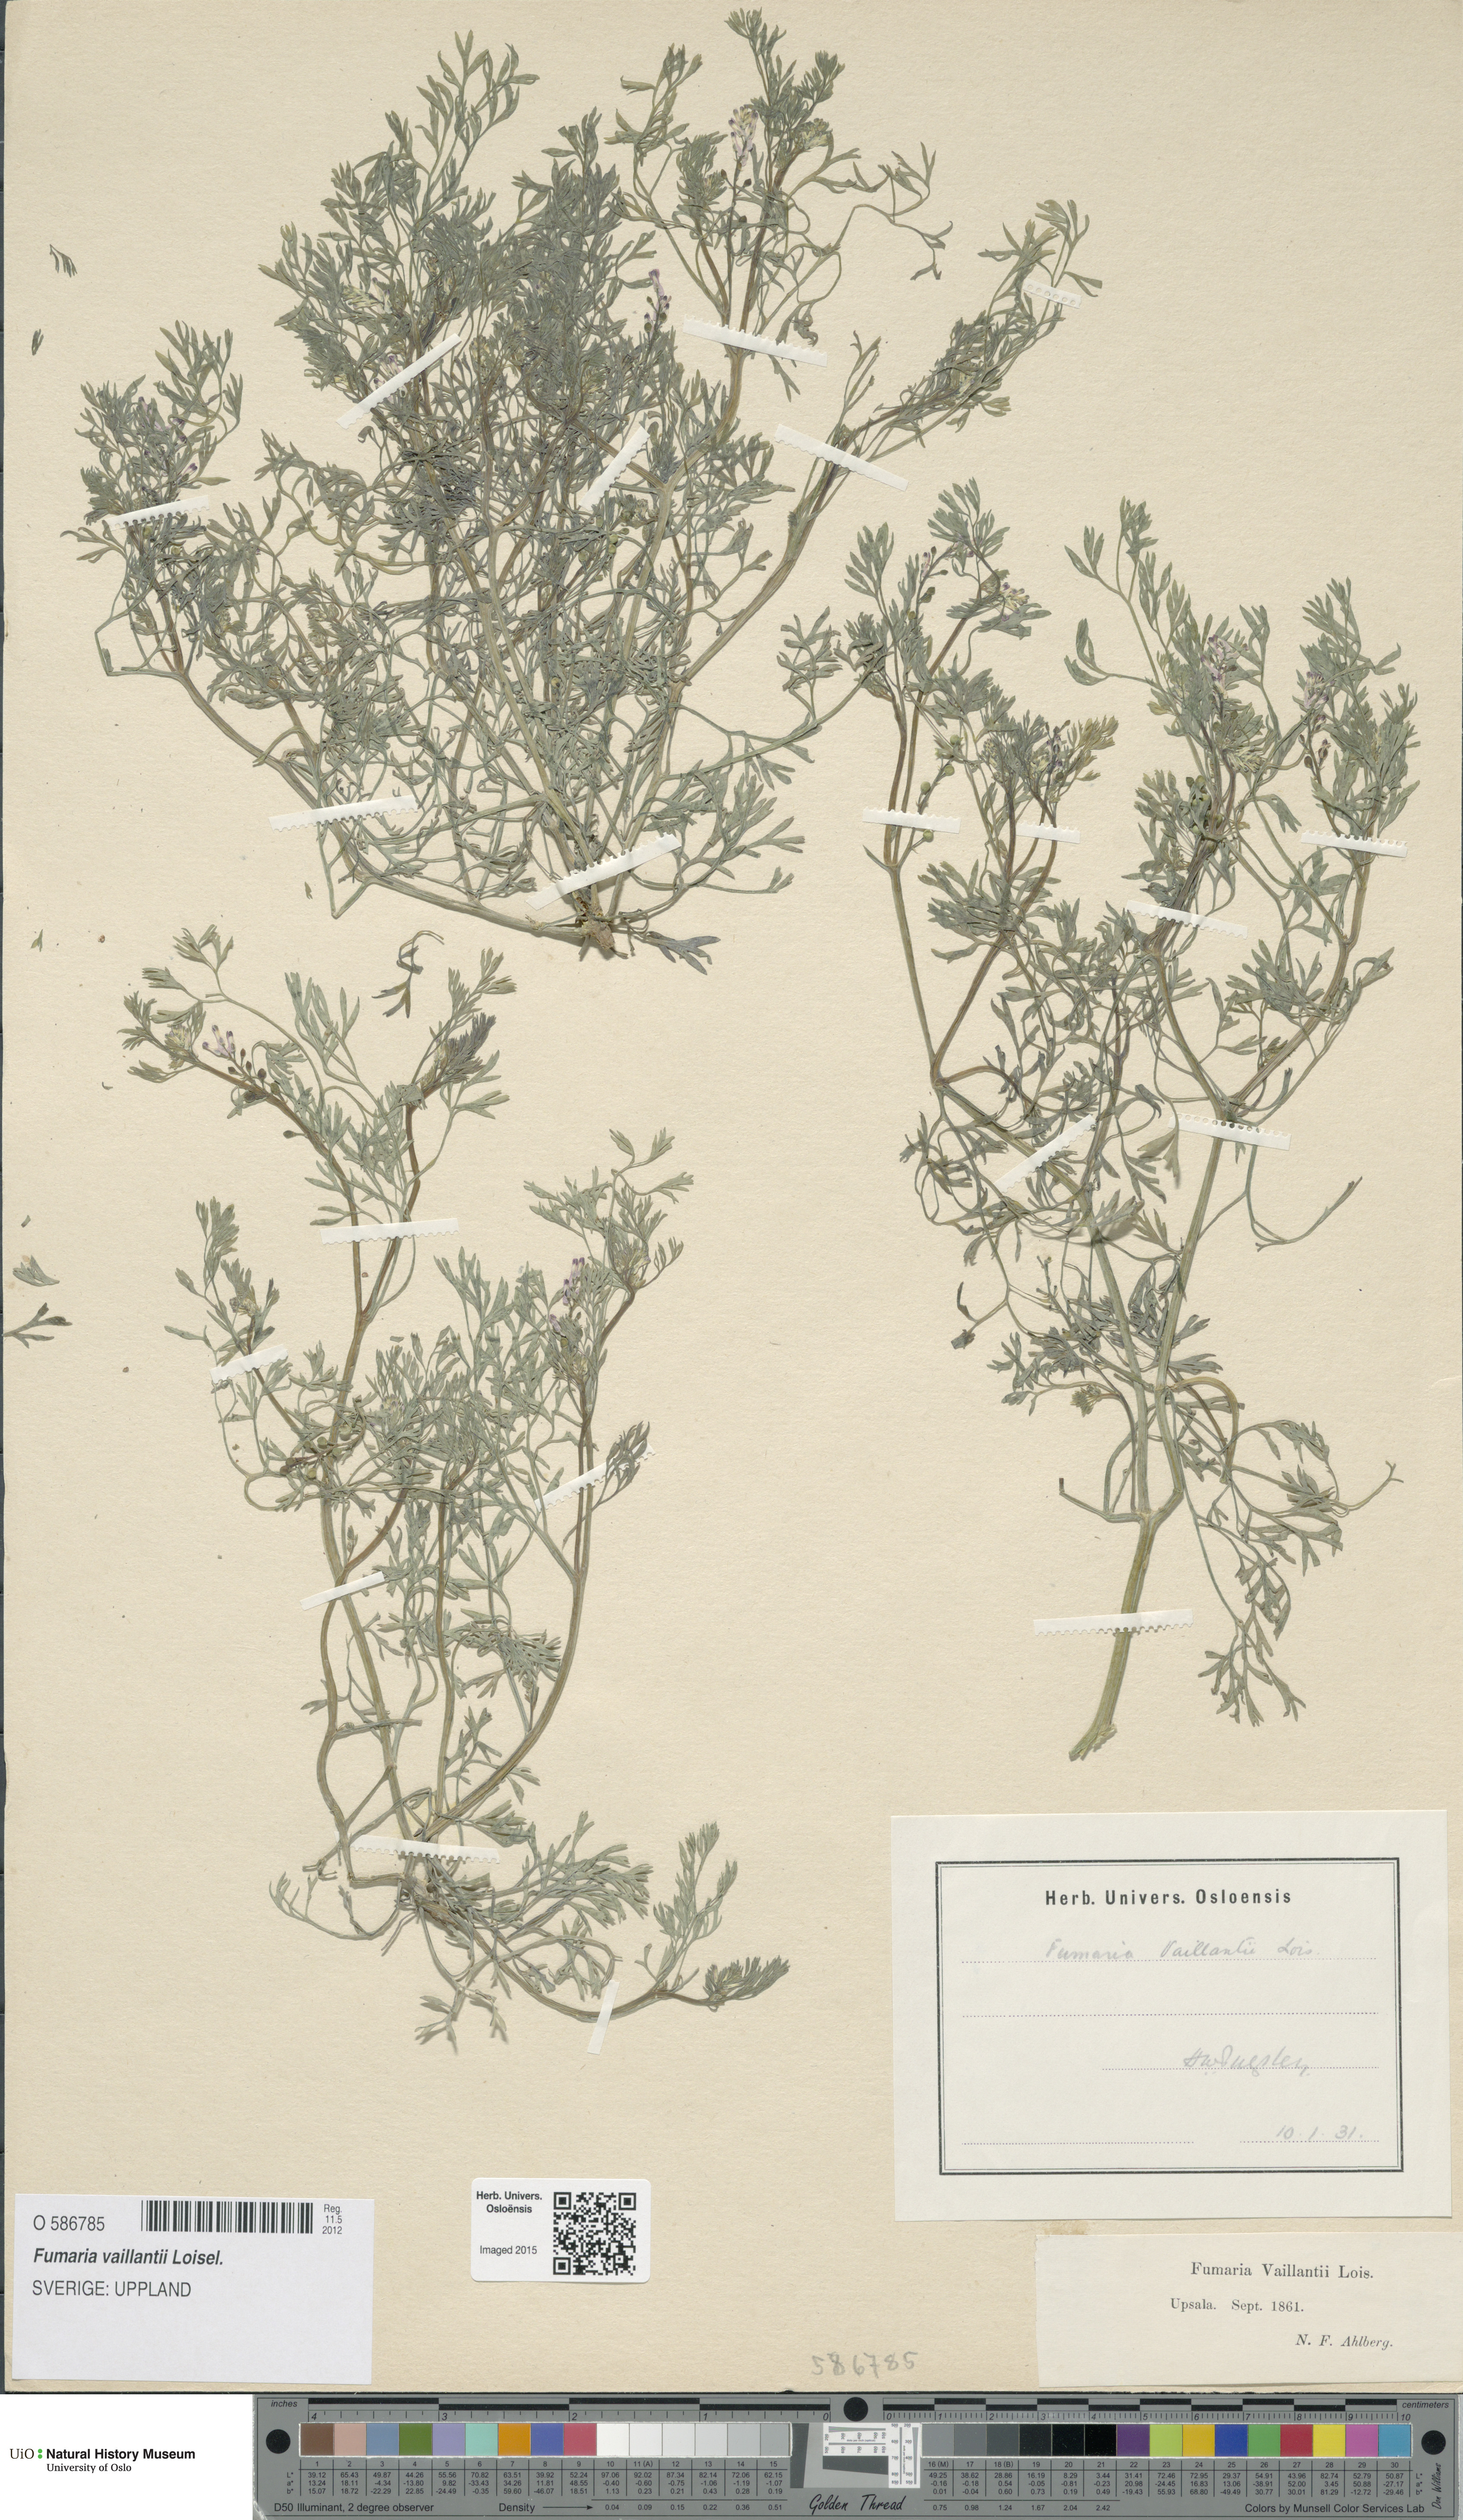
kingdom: Plantae
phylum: Tracheophyta
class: Magnoliopsida
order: Ranunculales
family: Papaveraceae
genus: Fumaria
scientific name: Fumaria vaillantii
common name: Few-flowered fumitory
